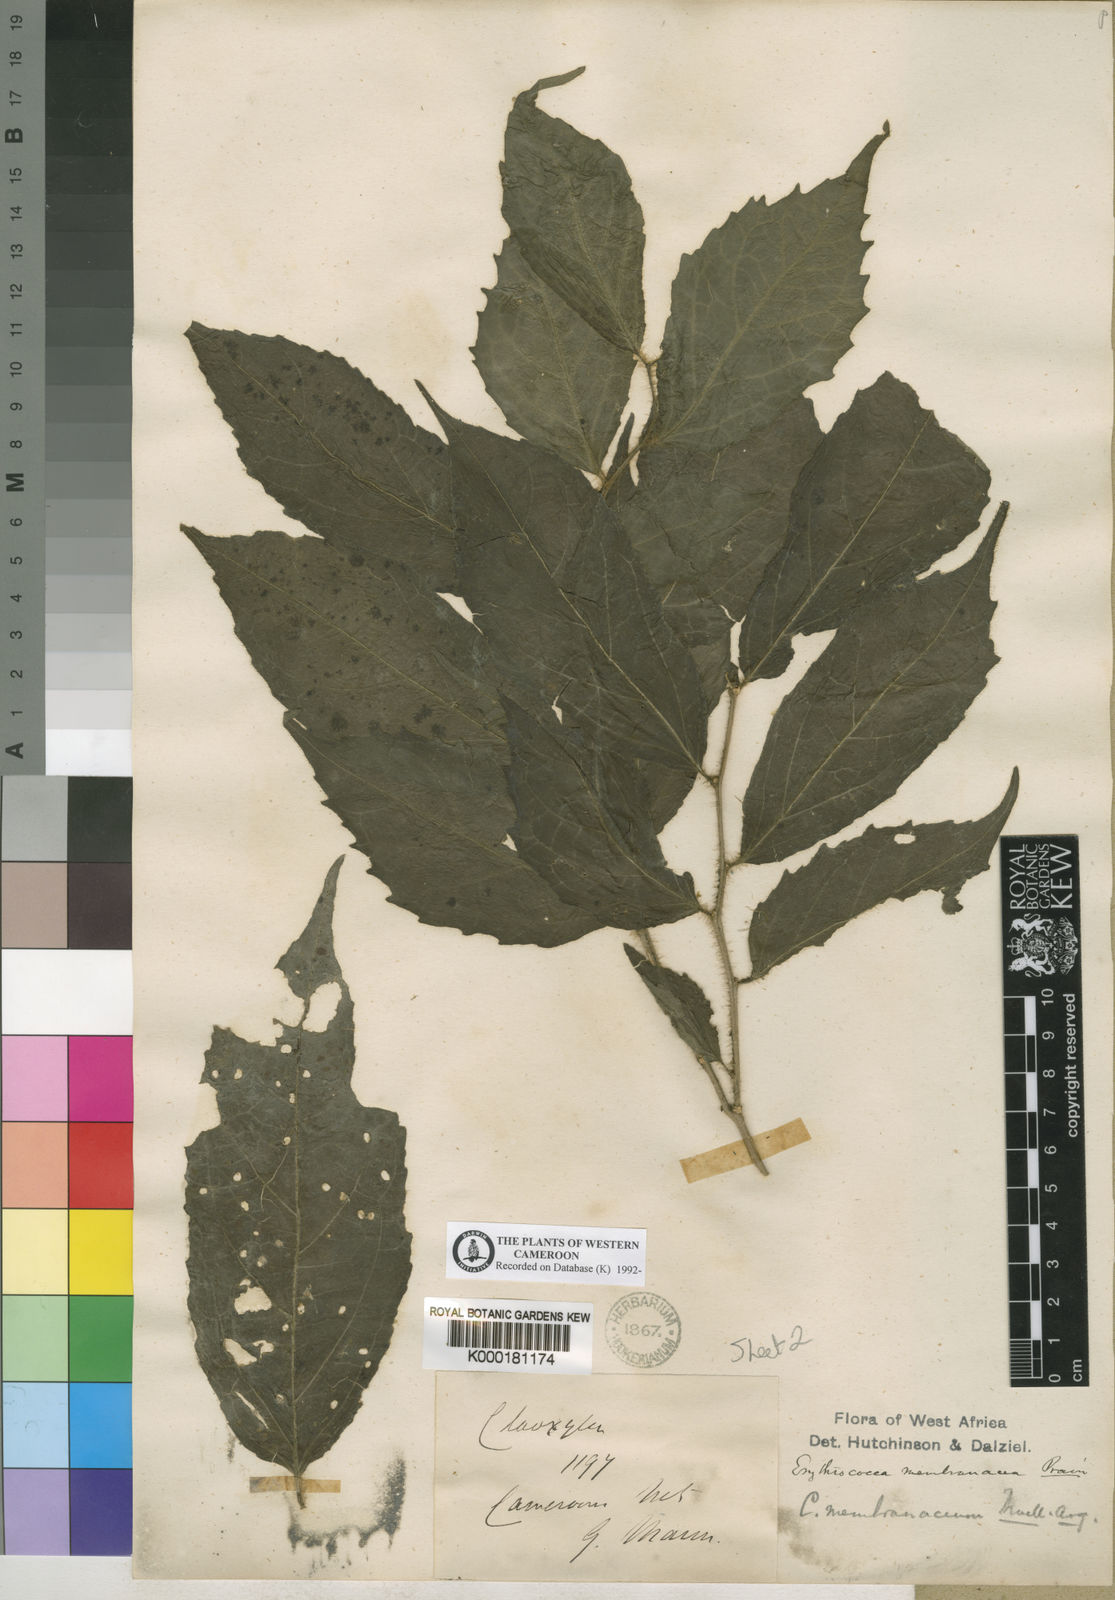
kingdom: Plantae
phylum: Tracheophyta
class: Magnoliopsida
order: Malpighiales
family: Euphorbiaceae
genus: Erythrococca
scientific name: Erythrococca
